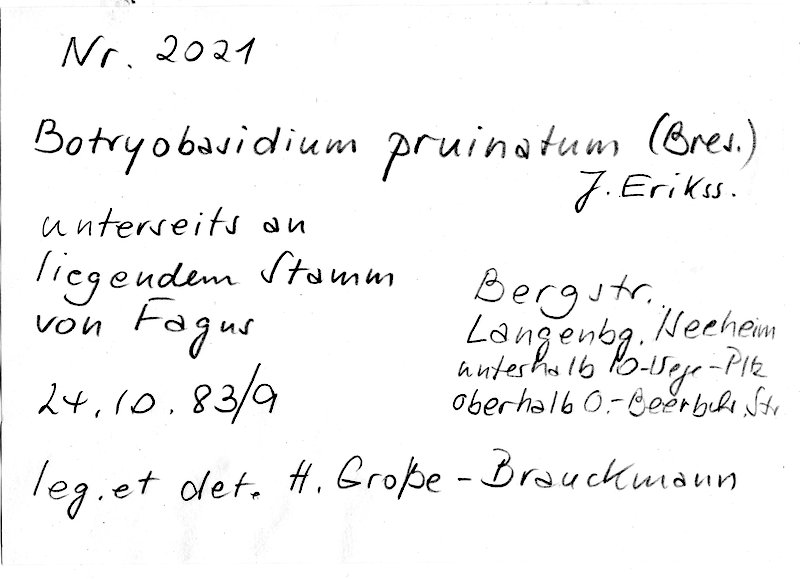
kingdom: Plantae
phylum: Tracheophyta
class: Magnoliopsida
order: Fagales
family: Fagaceae
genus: Fagus
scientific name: Fagus sylvatica
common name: Beech
